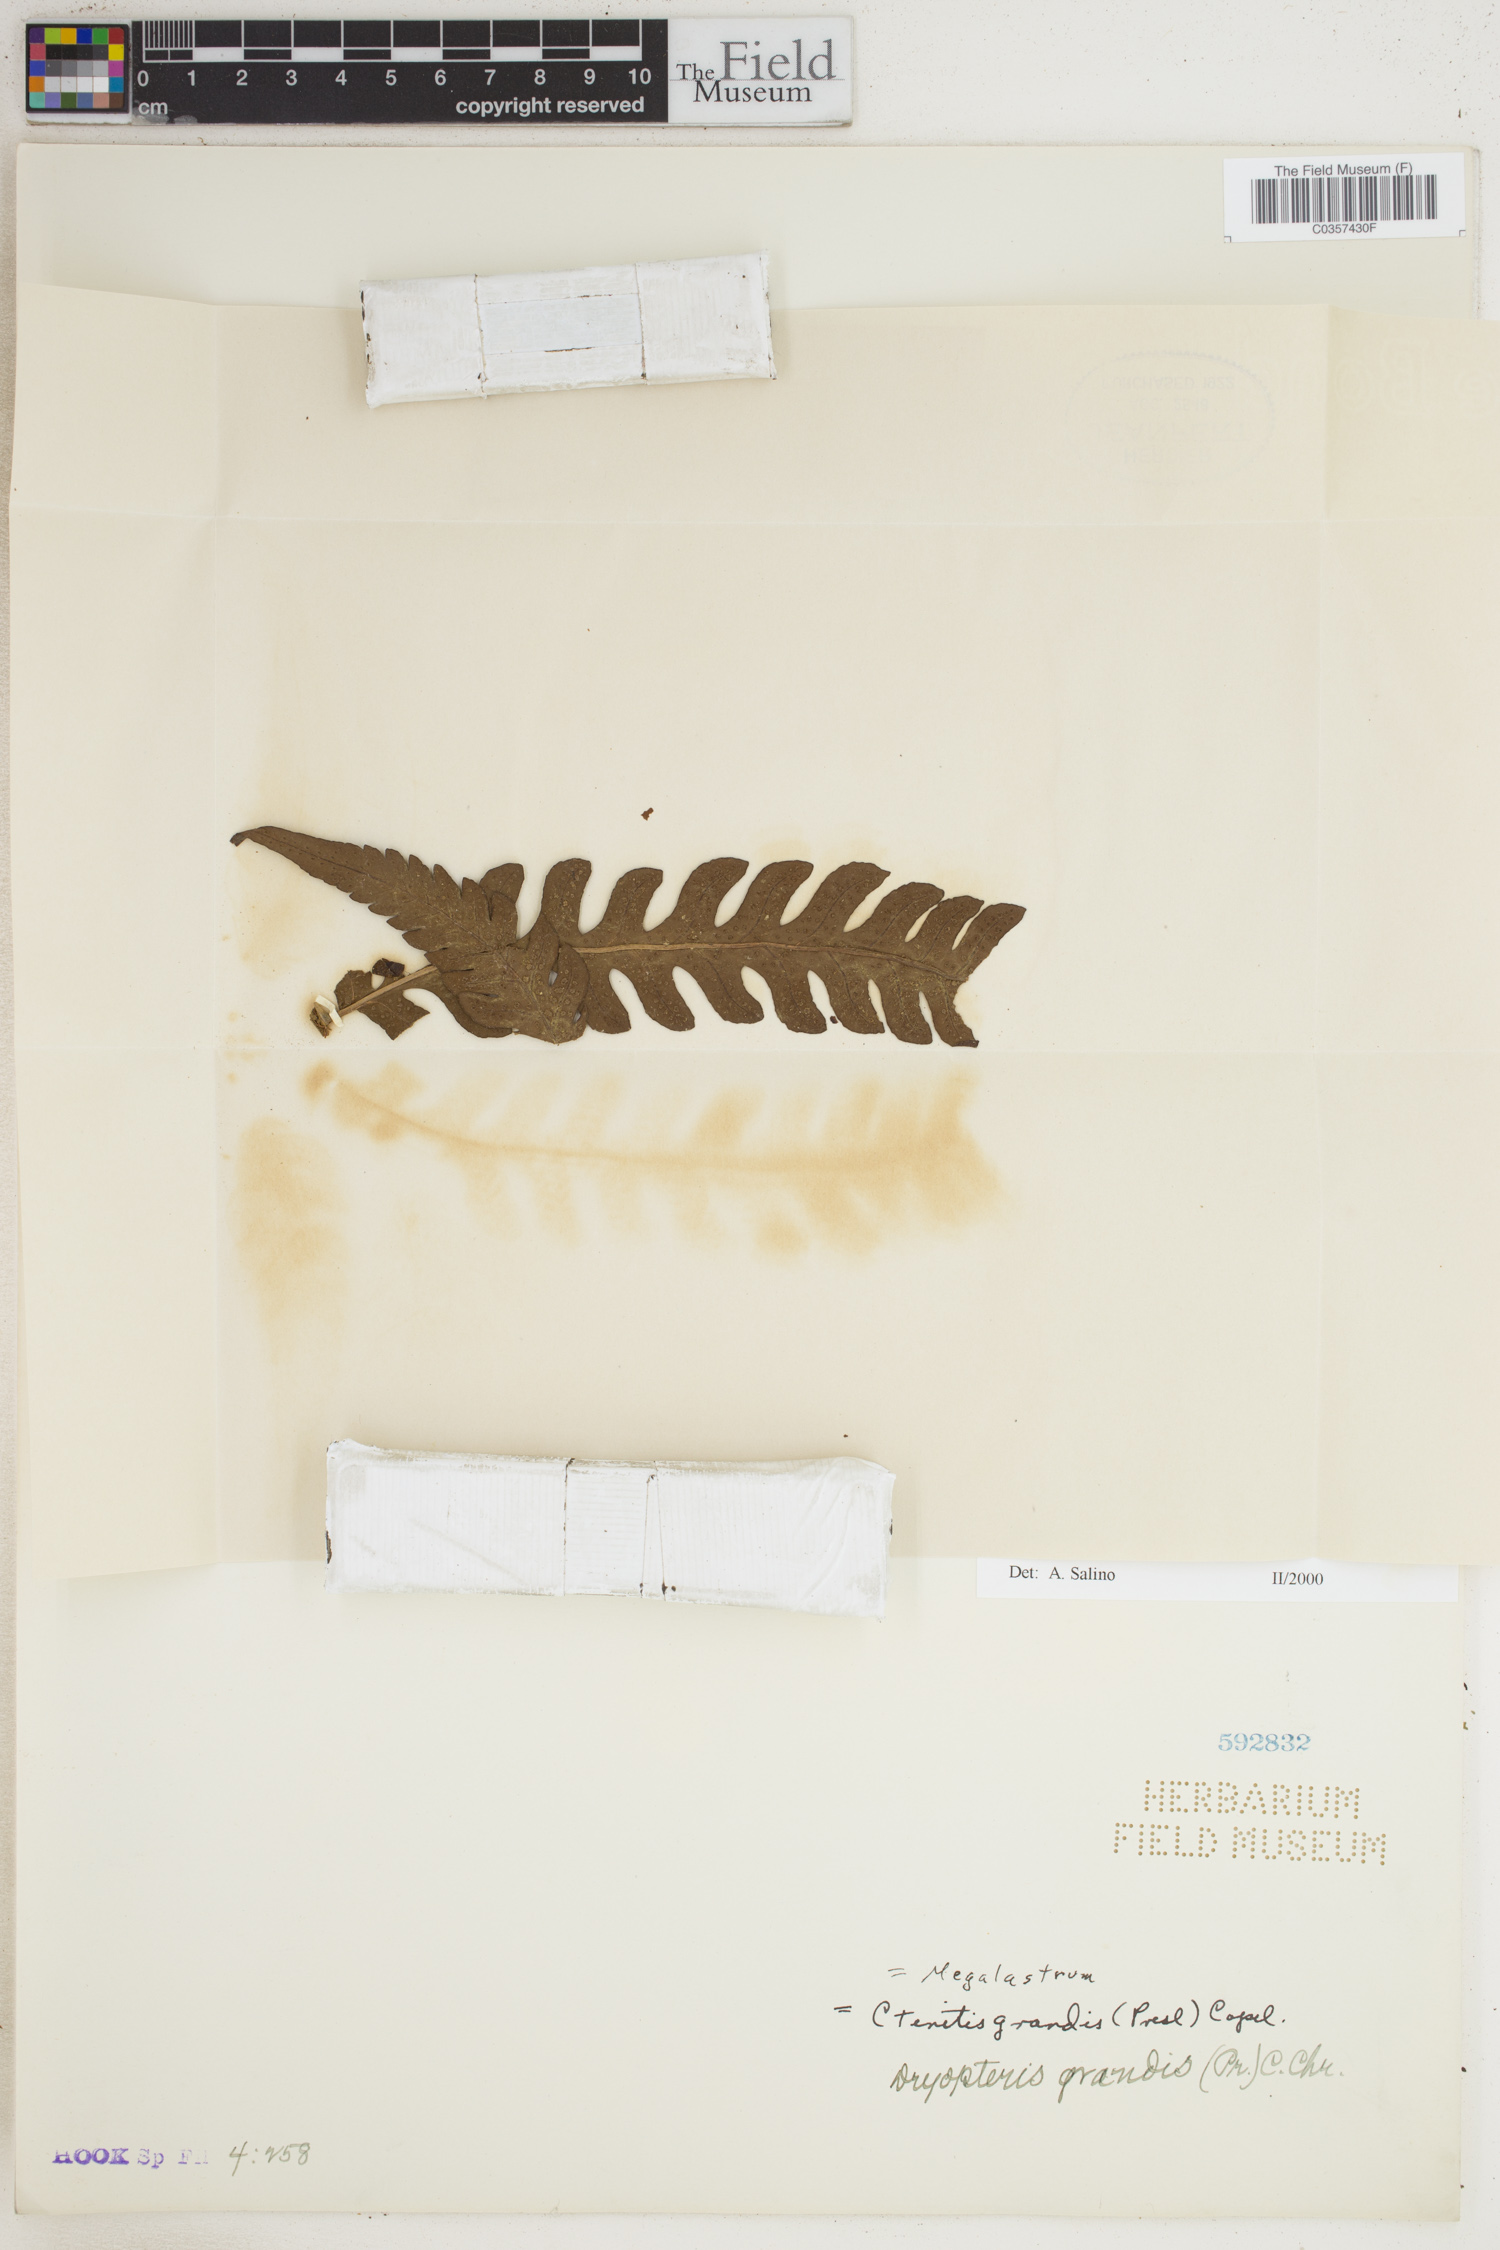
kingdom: Plantae
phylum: Tracheophyta
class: Polypodiopsida
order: Polypodiales
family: Dryopteridaceae
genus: Megalastrum
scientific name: Megalastrum grande
